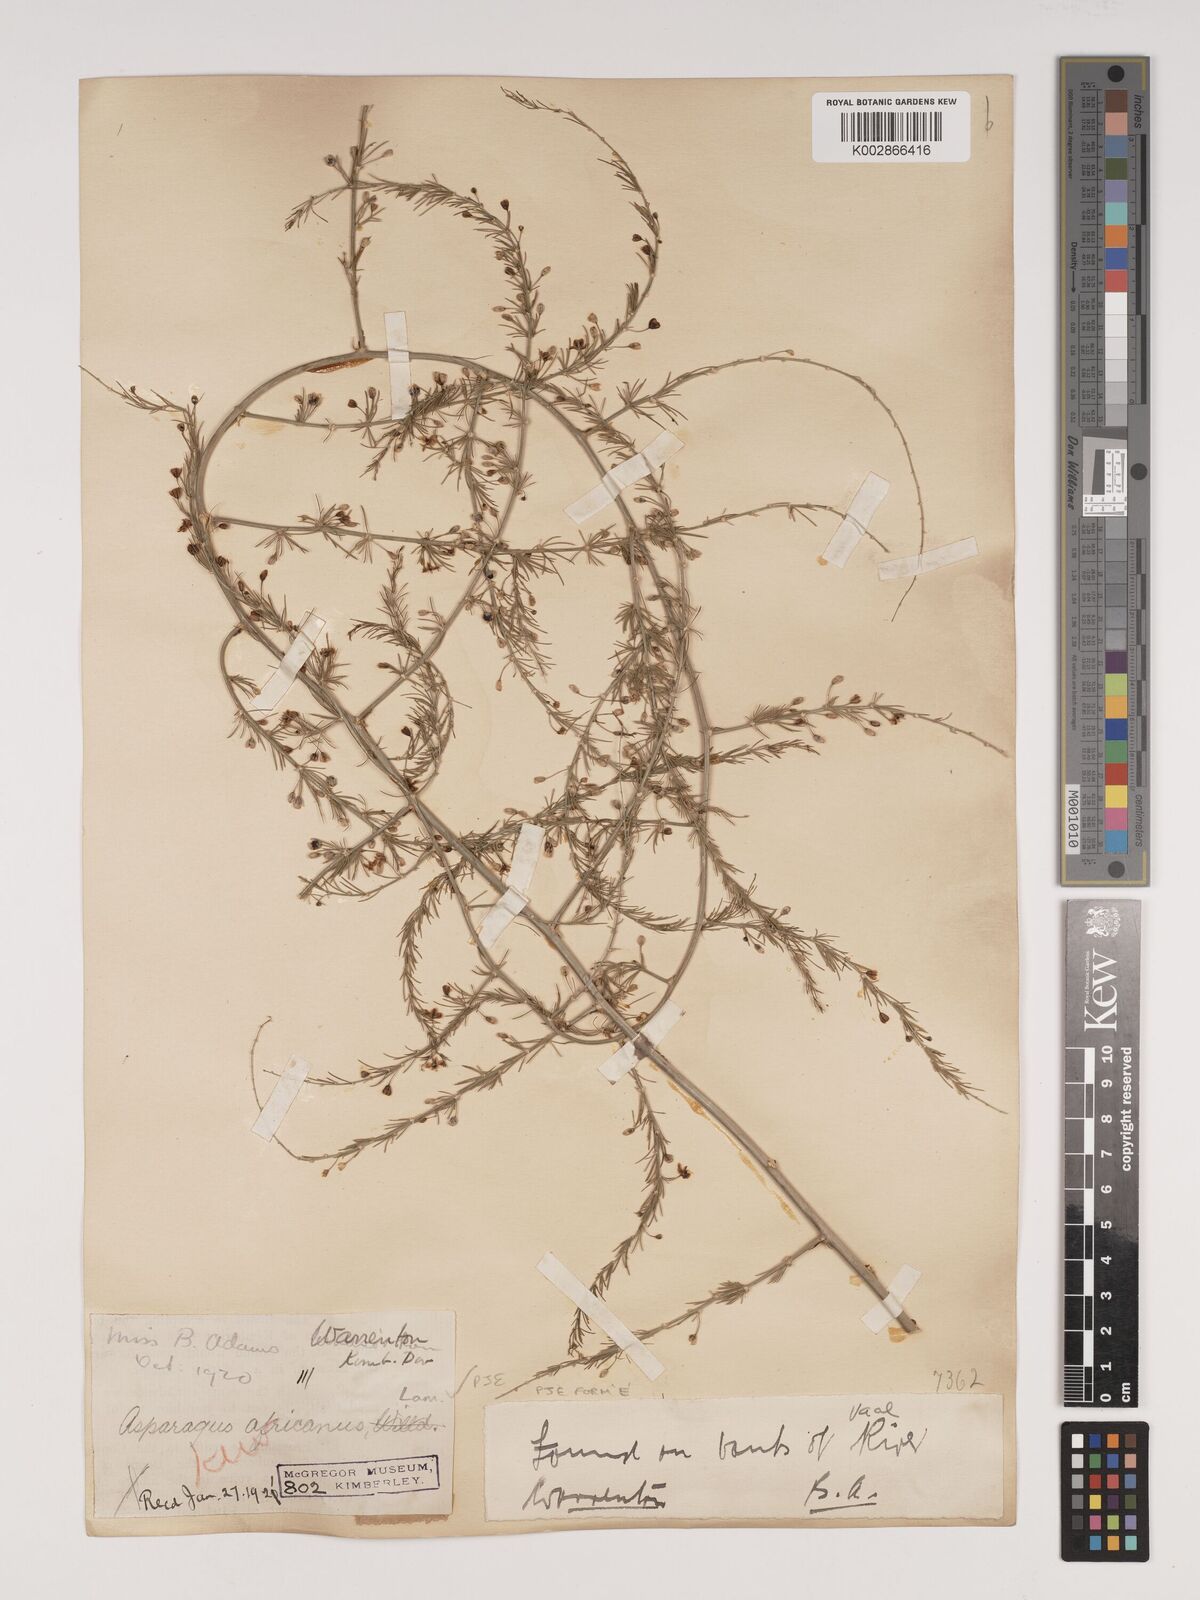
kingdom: Plantae
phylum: Tracheophyta
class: Liliopsida
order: Asparagales
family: Asparagaceae
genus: Asparagus
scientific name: Asparagus africanus
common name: Asparagus-fern
